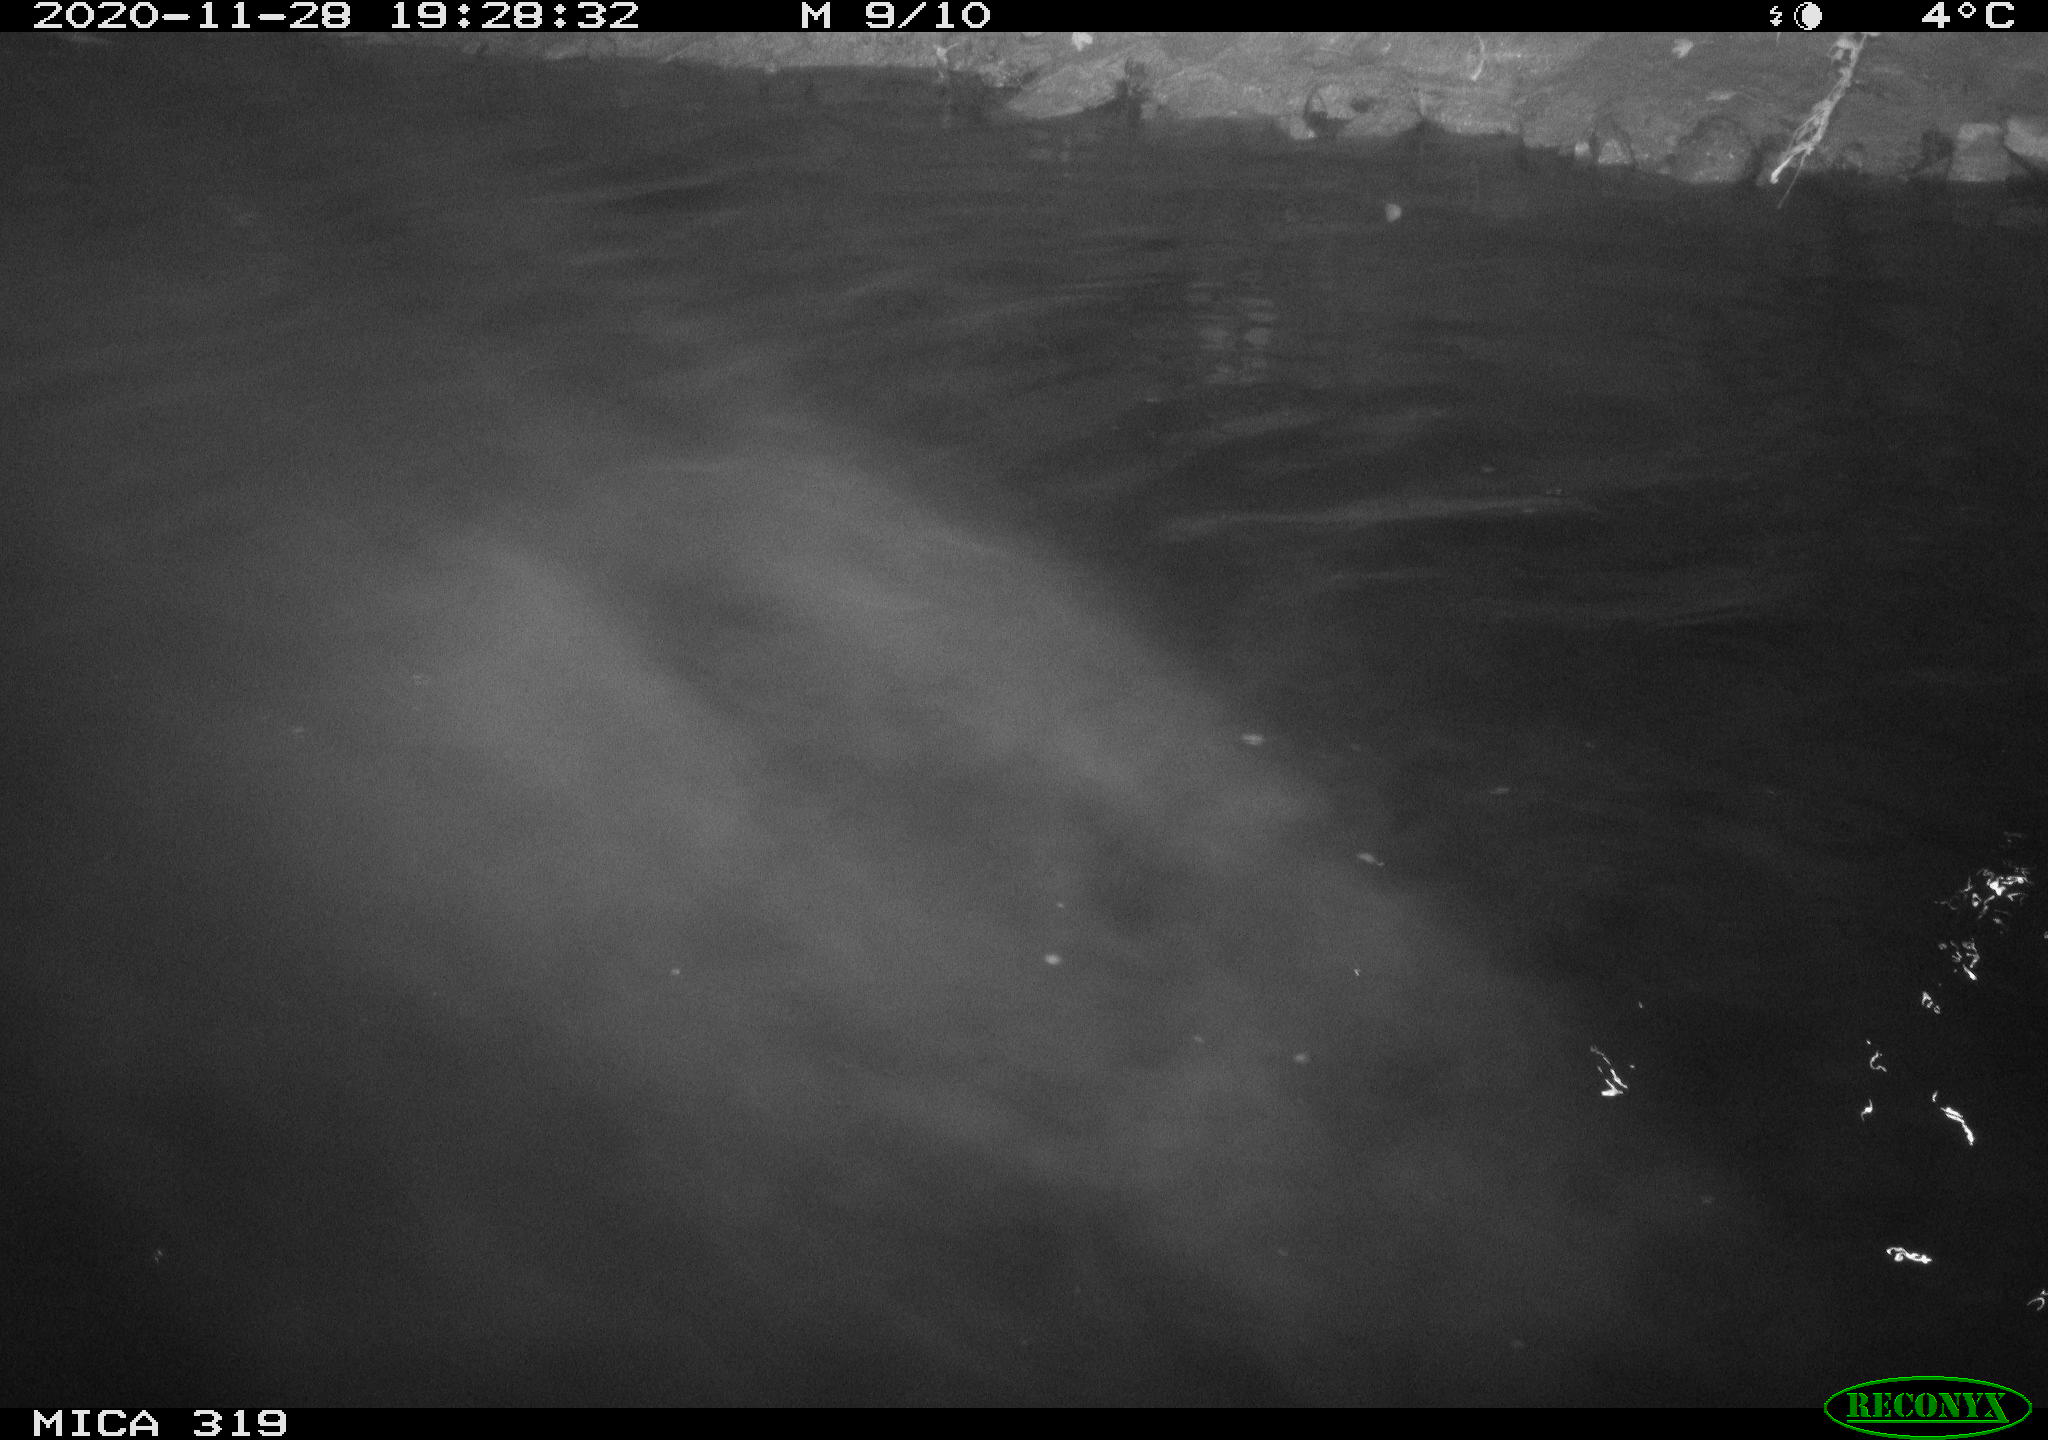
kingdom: Animalia
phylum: Chordata
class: Aves
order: Anseriformes
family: Anatidae
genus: Anas
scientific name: Anas platyrhynchos
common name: Mallard
